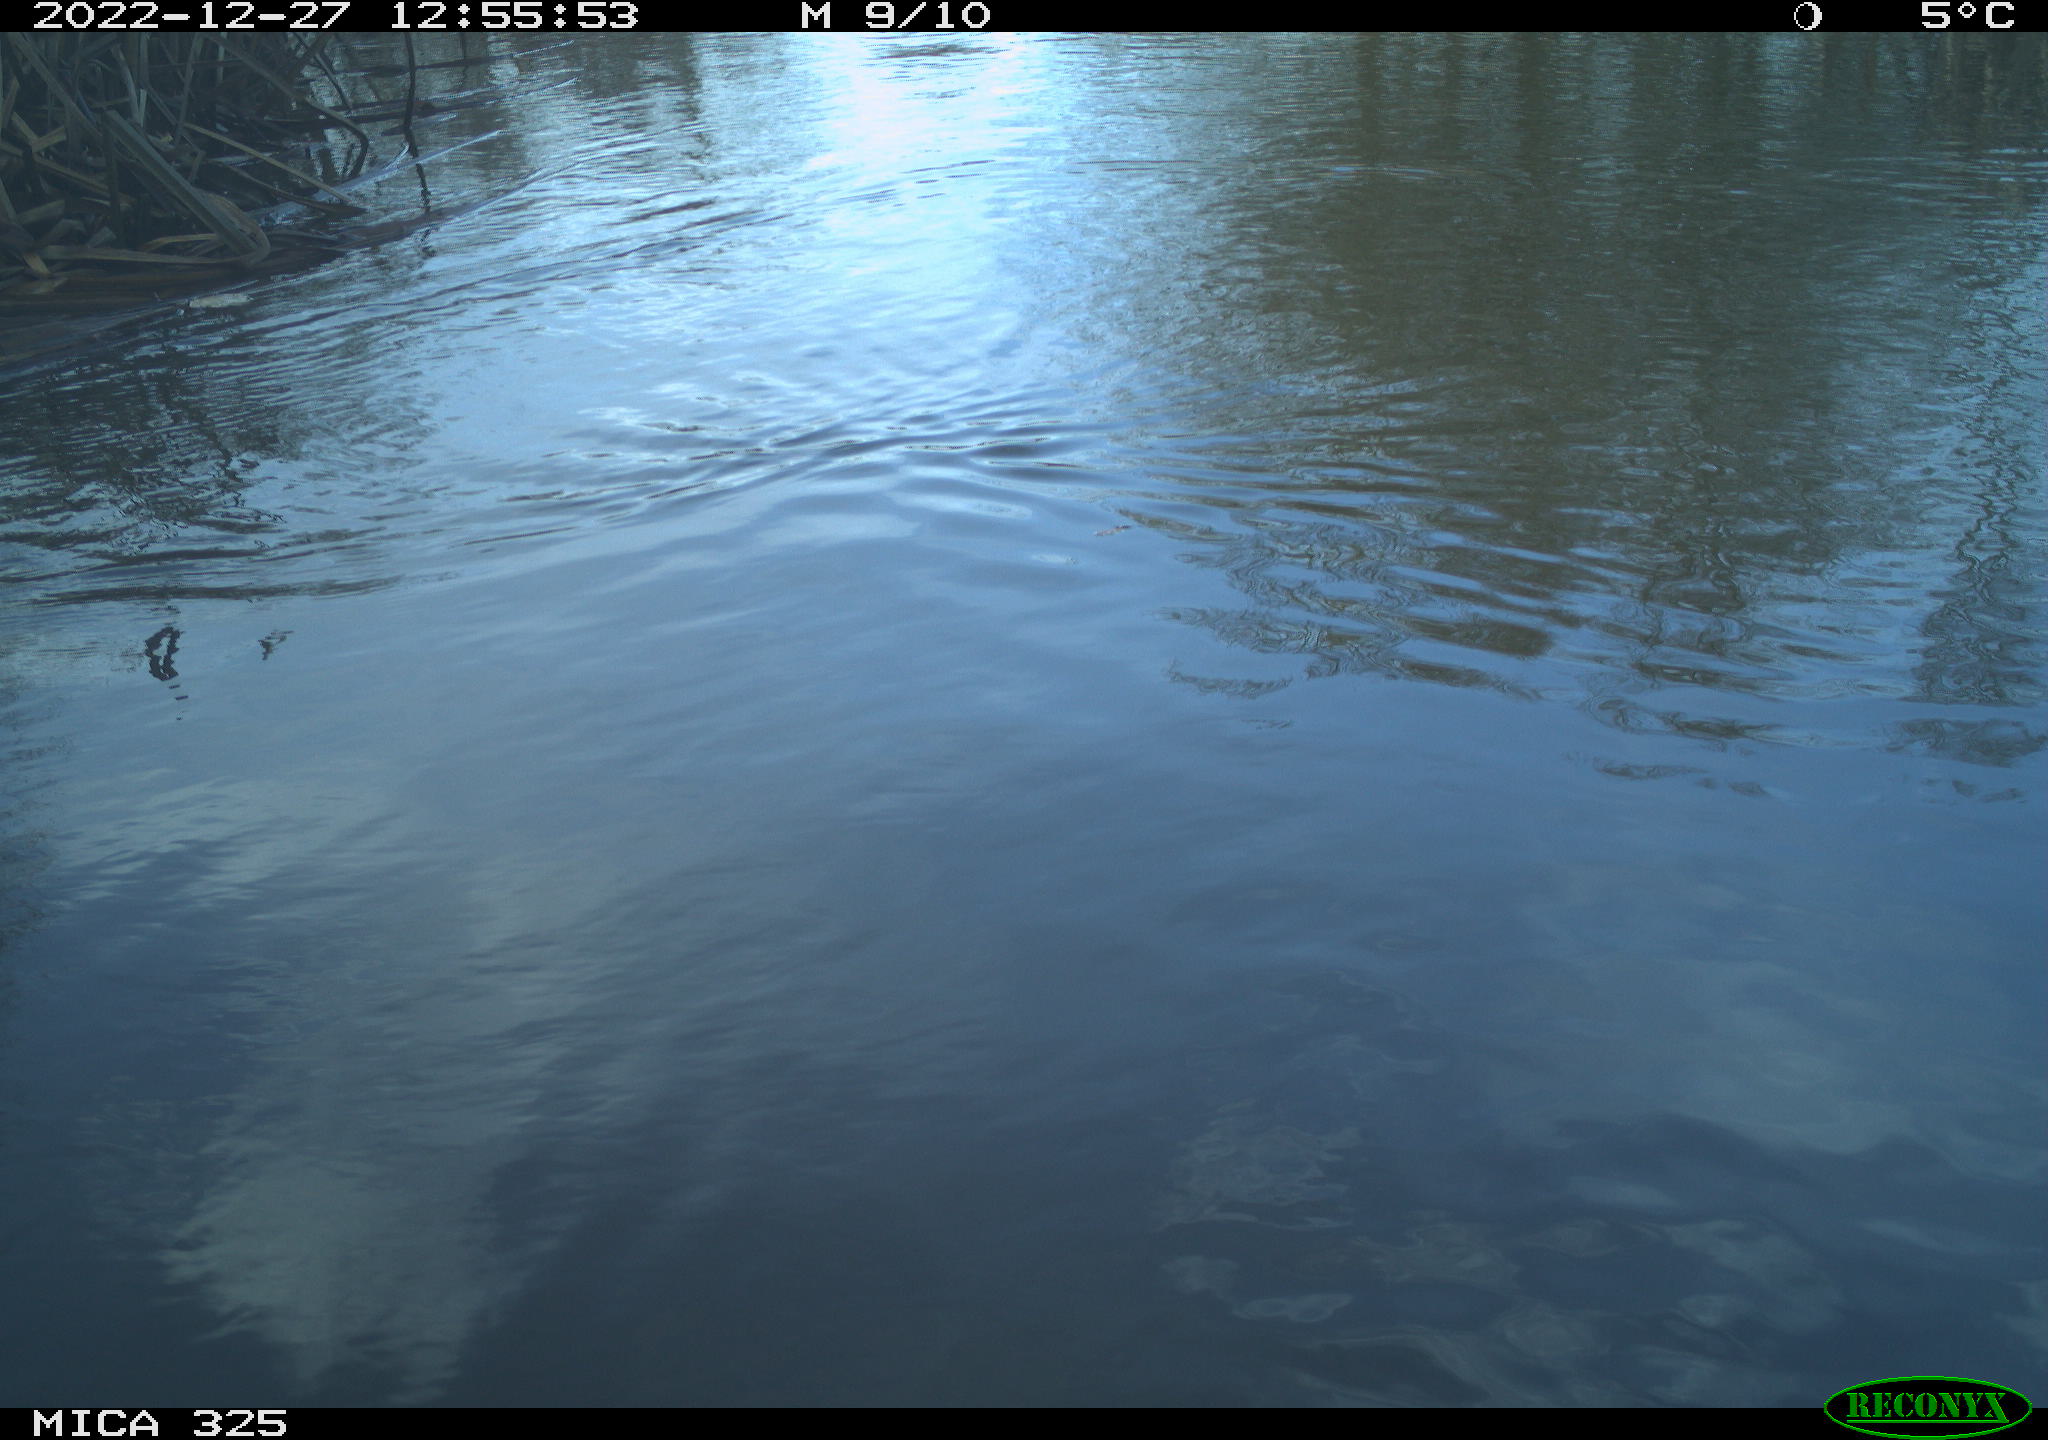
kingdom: Animalia
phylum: Chordata
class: Aves
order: Gruiformes
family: Rallidae
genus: Gallinula
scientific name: Gallinula chloropus
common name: Common moorhen
